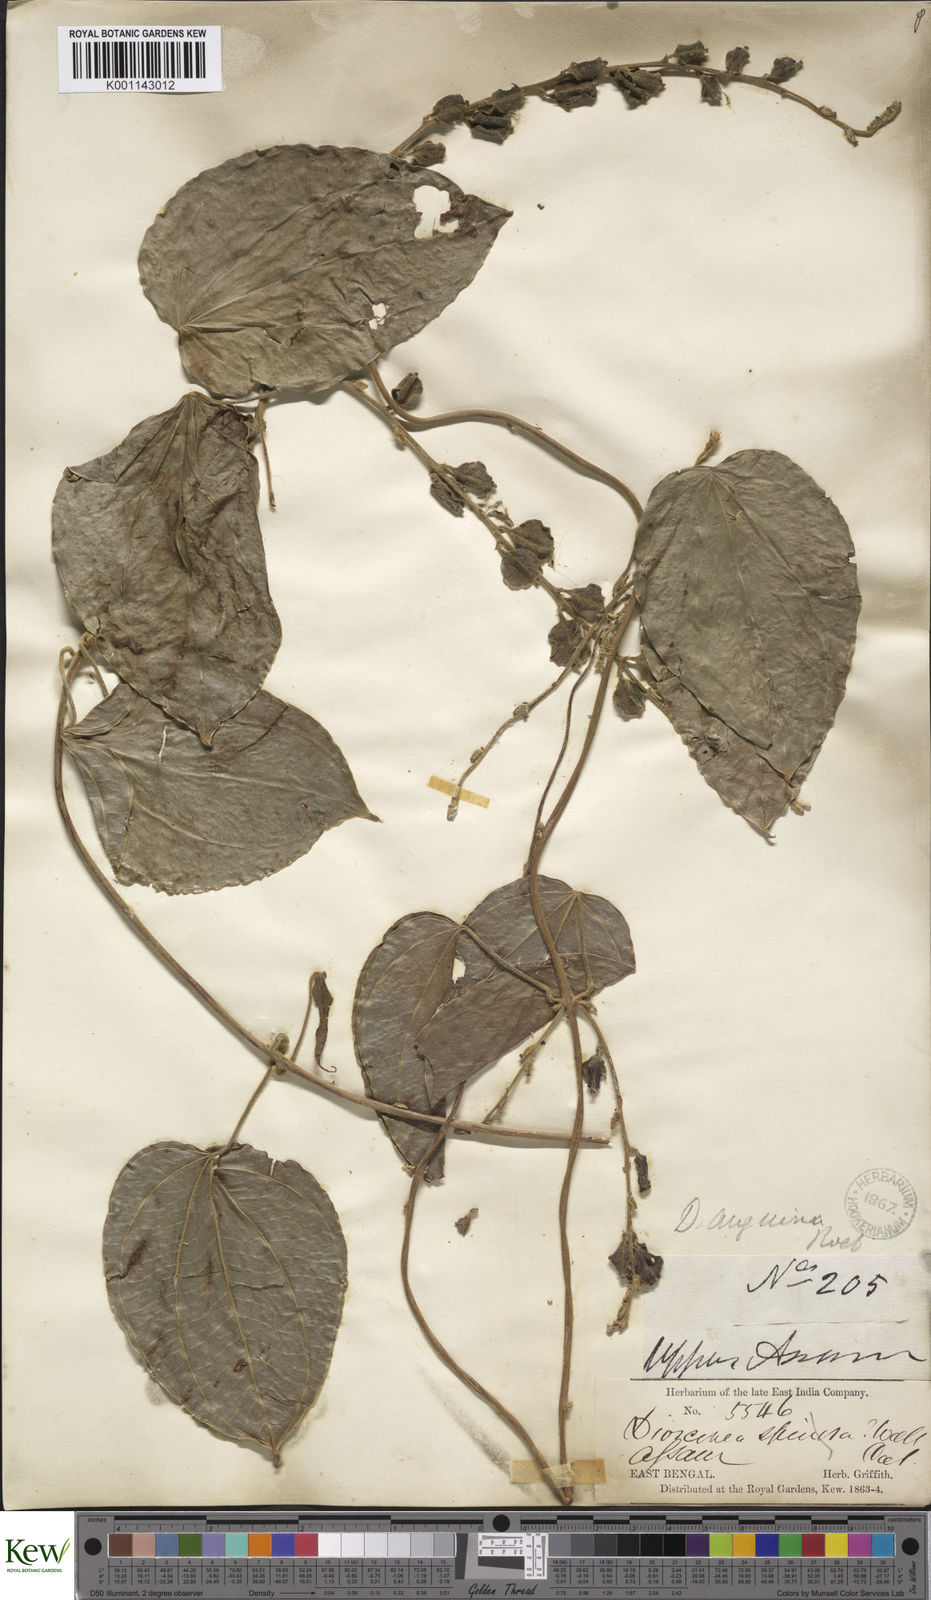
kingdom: Plantae
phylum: Tracheophyta
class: Liliopsida
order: Dioscoreales
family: Dioscoreaceae
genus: Dioscorea
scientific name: Dioscorea pubera
